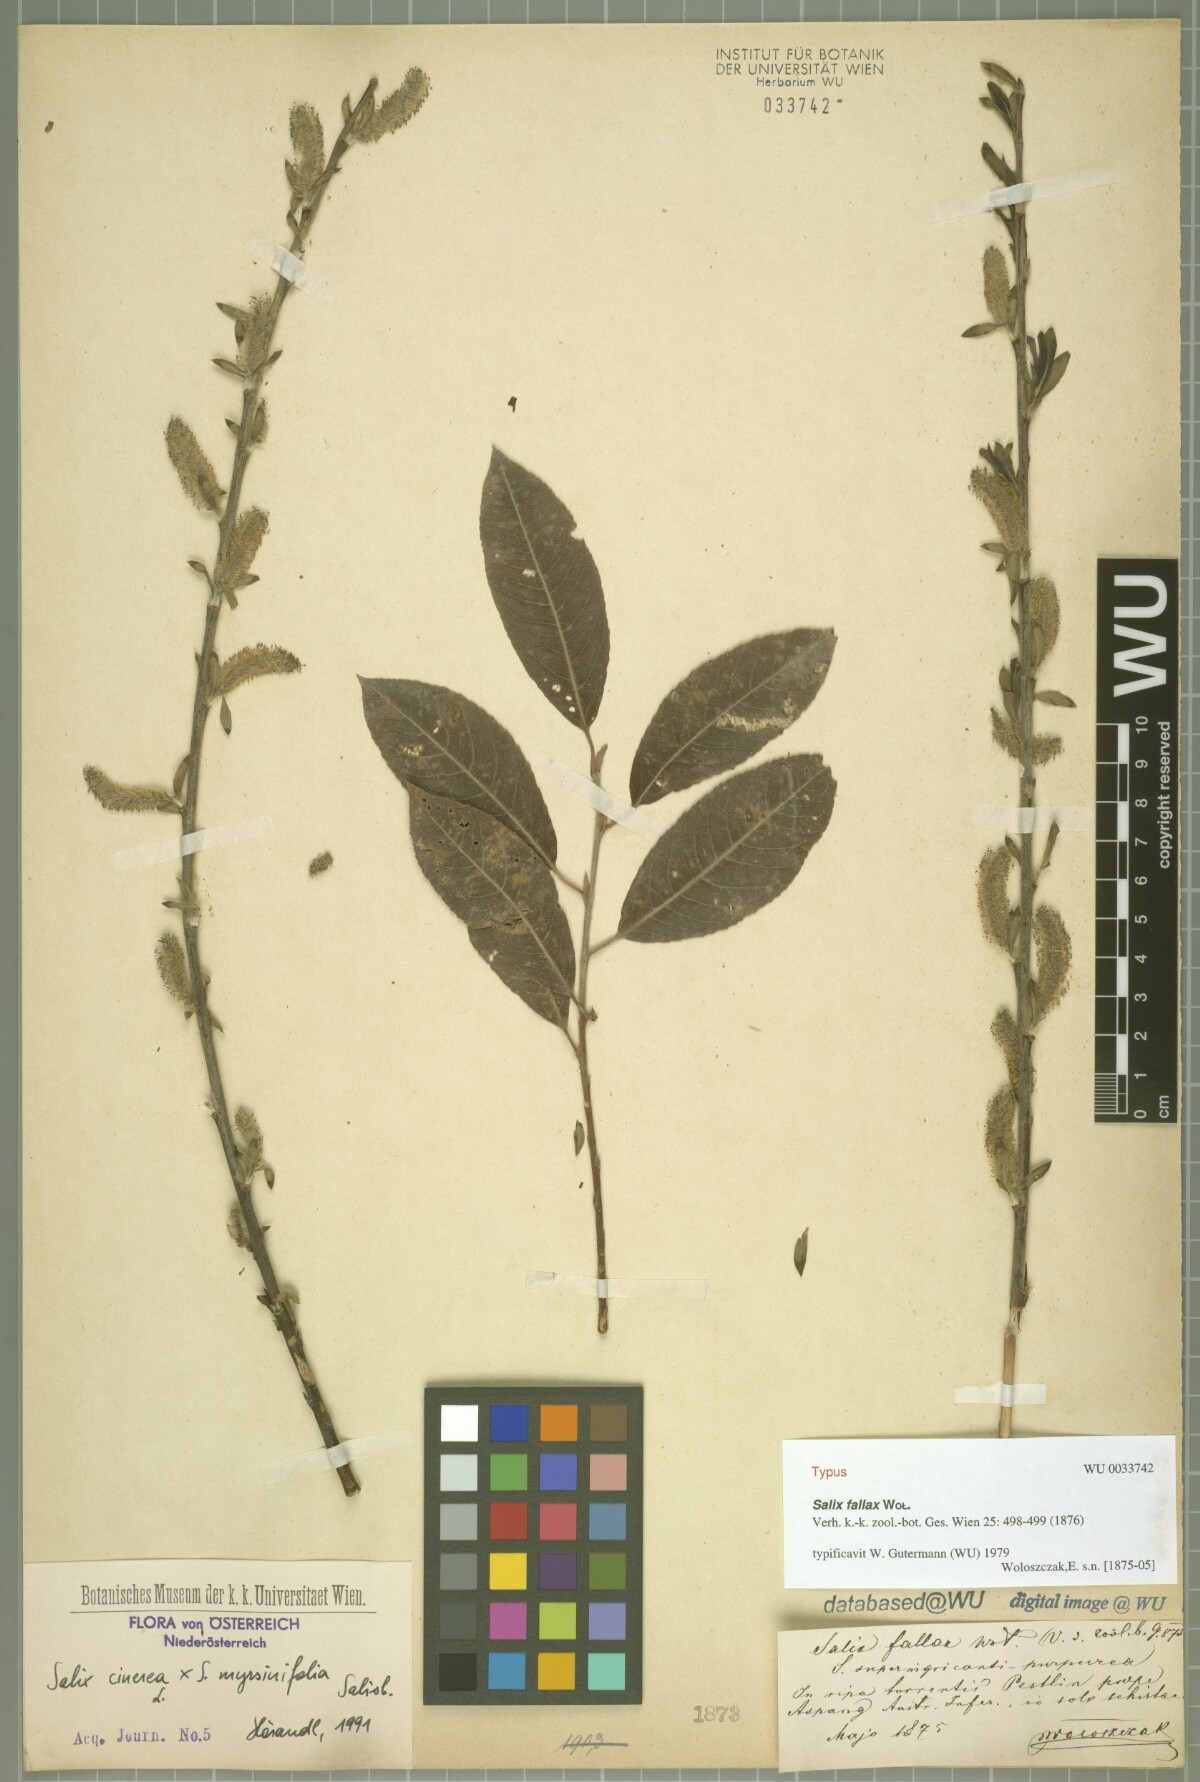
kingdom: Plantae
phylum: Tracheophyta
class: Magnoliopsida
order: Malpighiales
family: Salicaceae
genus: Salix
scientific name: Salix fallax
